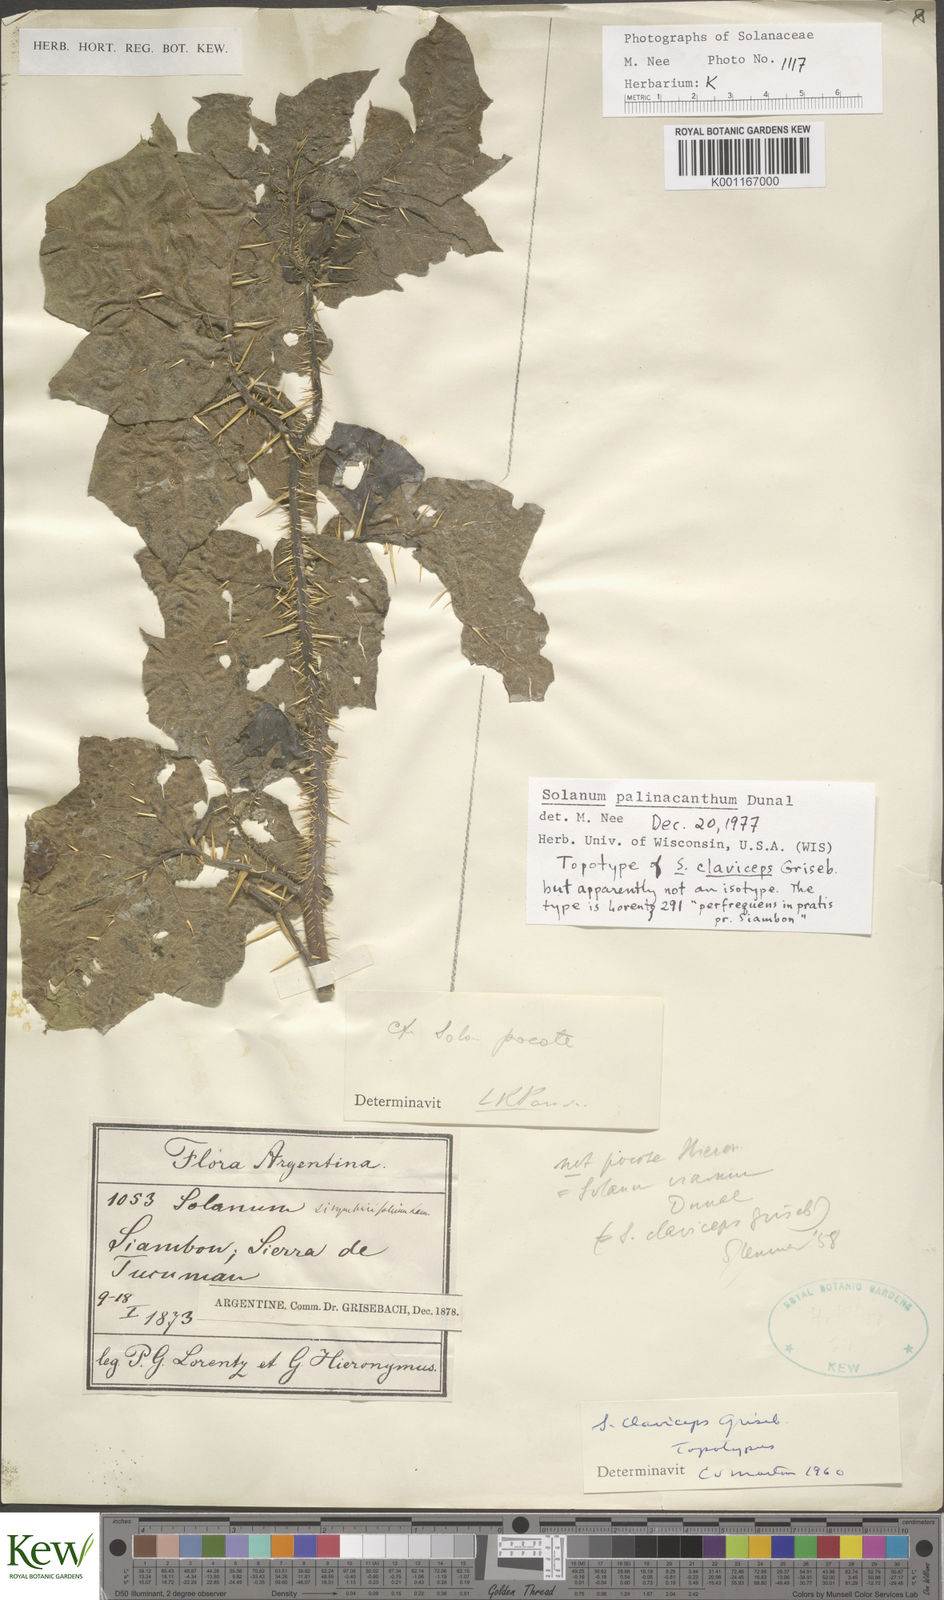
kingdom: Plantae
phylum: Tracheophyta
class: Magnoliopsida
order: Solanales
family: Solanaceae
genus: Solanum
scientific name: Solanum palinacanthum
